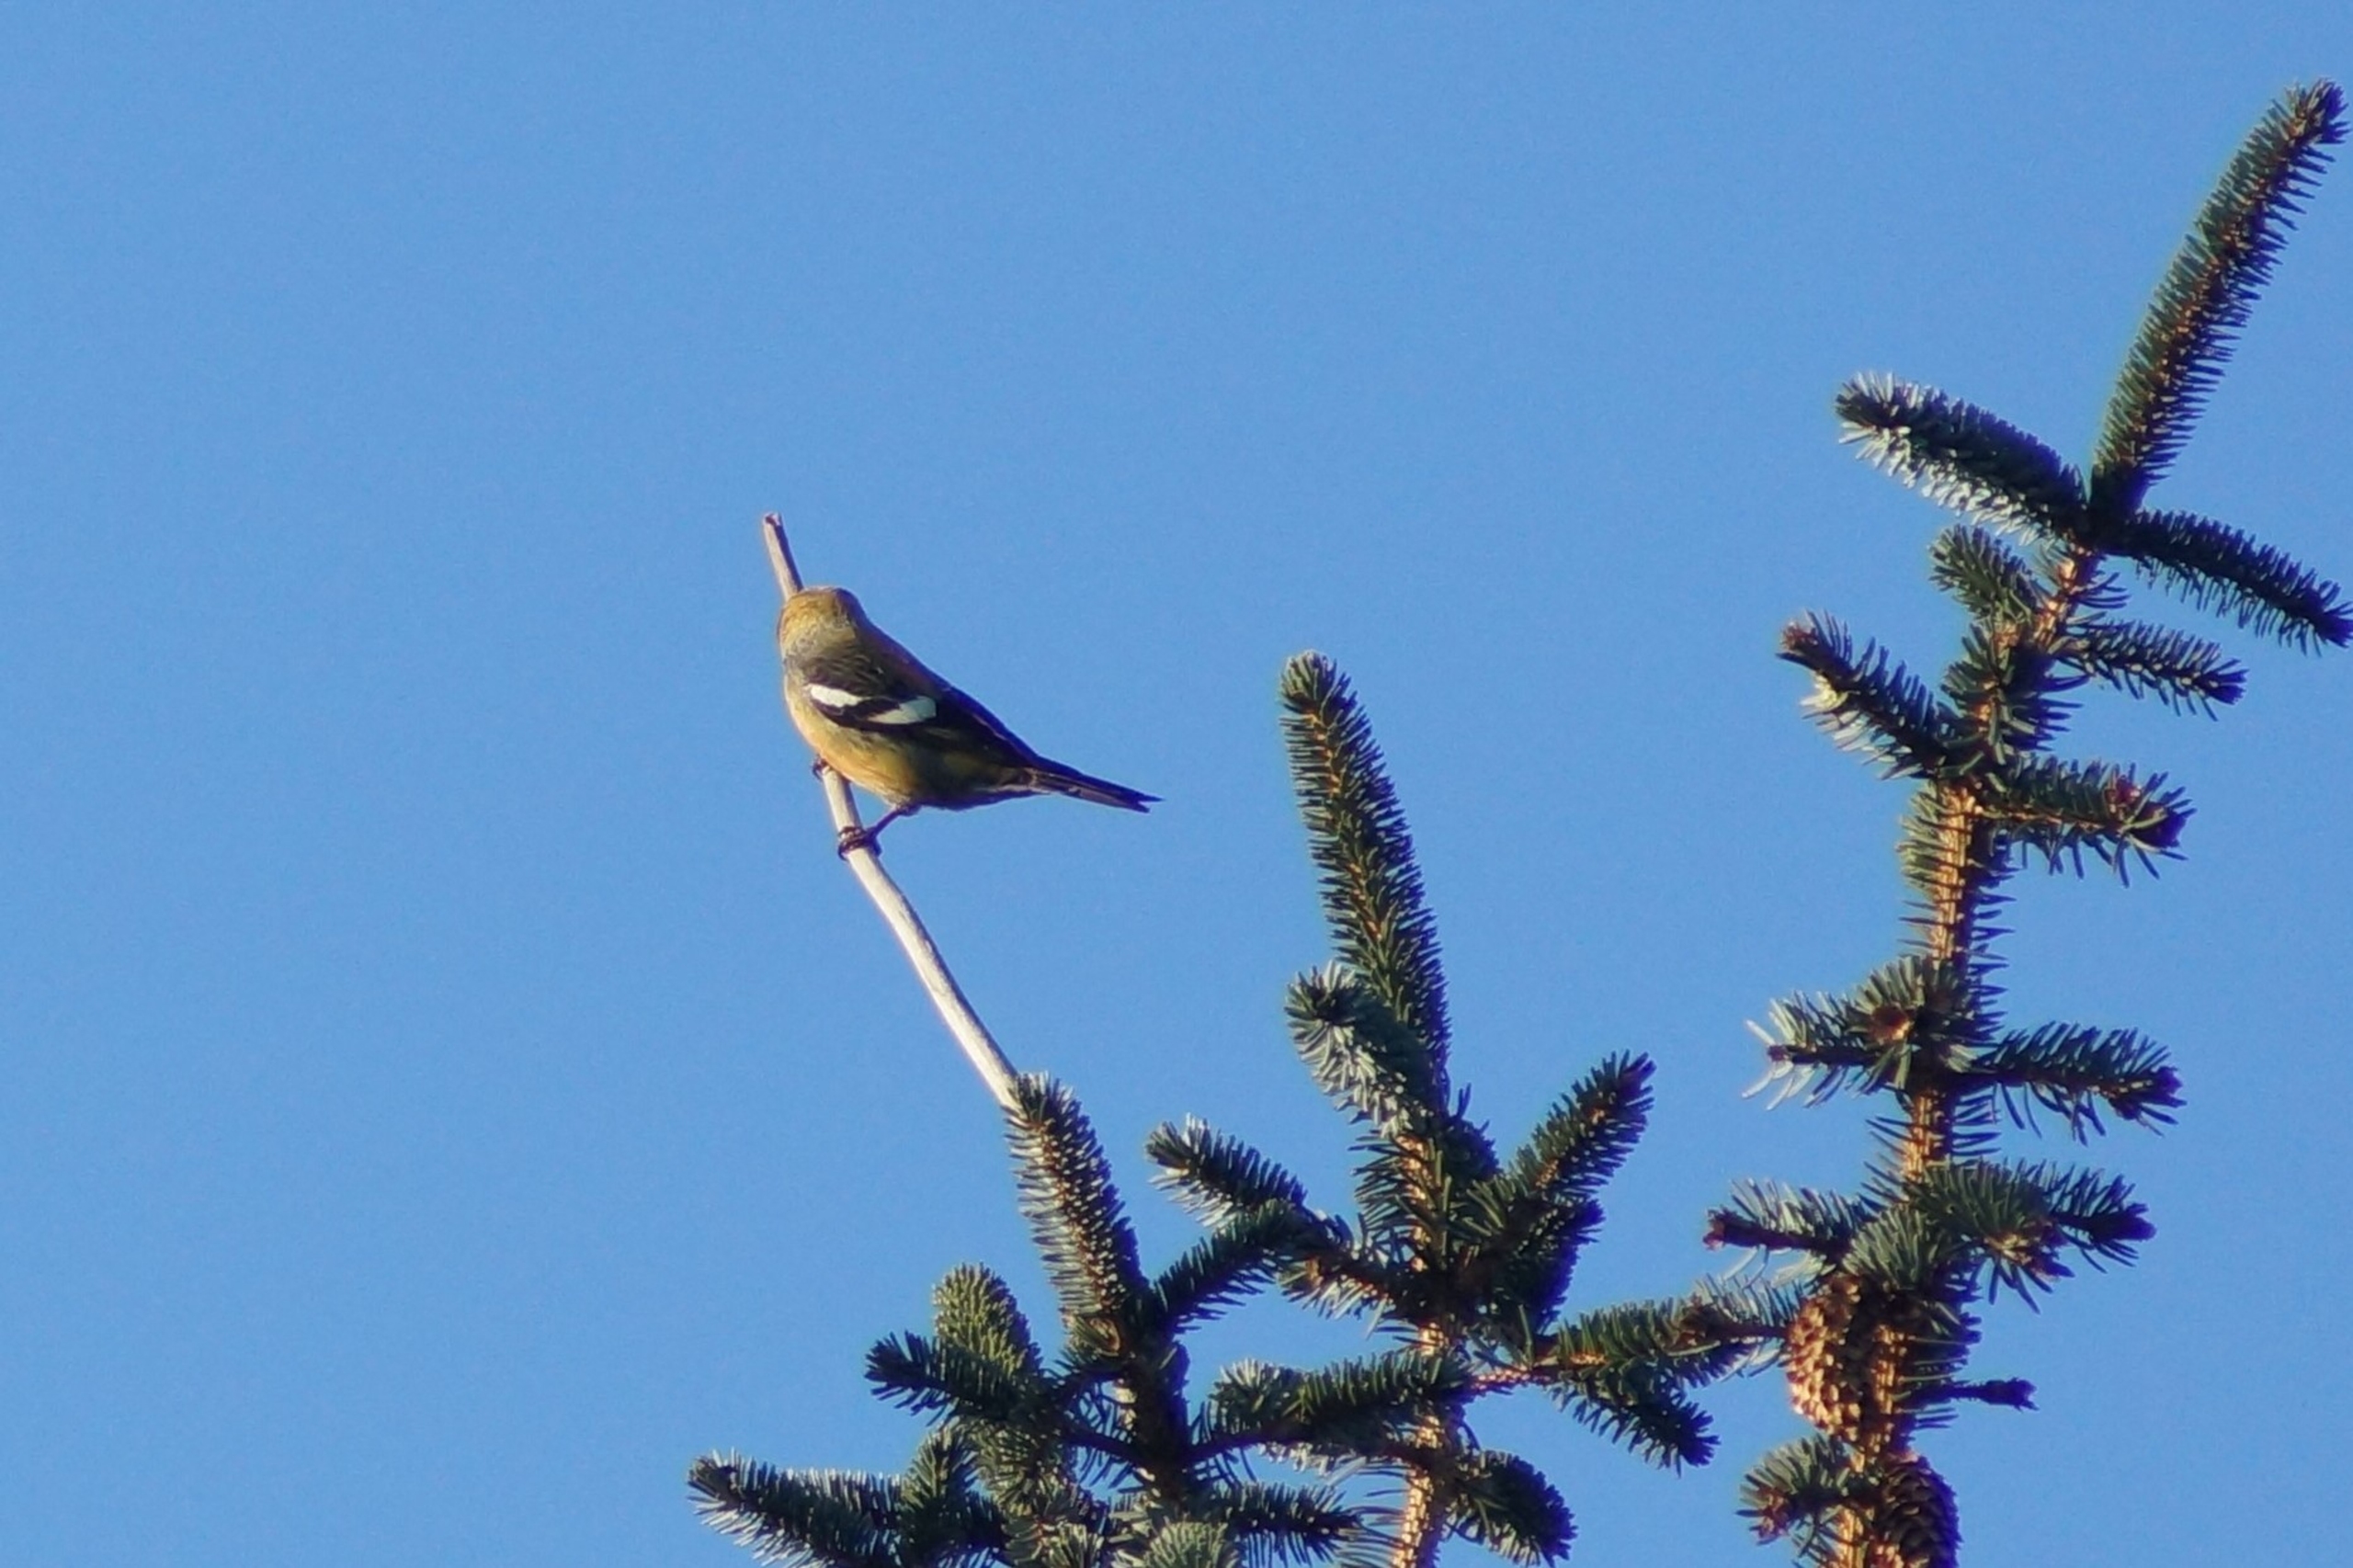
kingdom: Animalia
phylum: Chordata
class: Aves
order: Passeriformes
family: Fringillidae
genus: Loxia
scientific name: Loxia leucoptera
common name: Hvidvinget korsnæb
